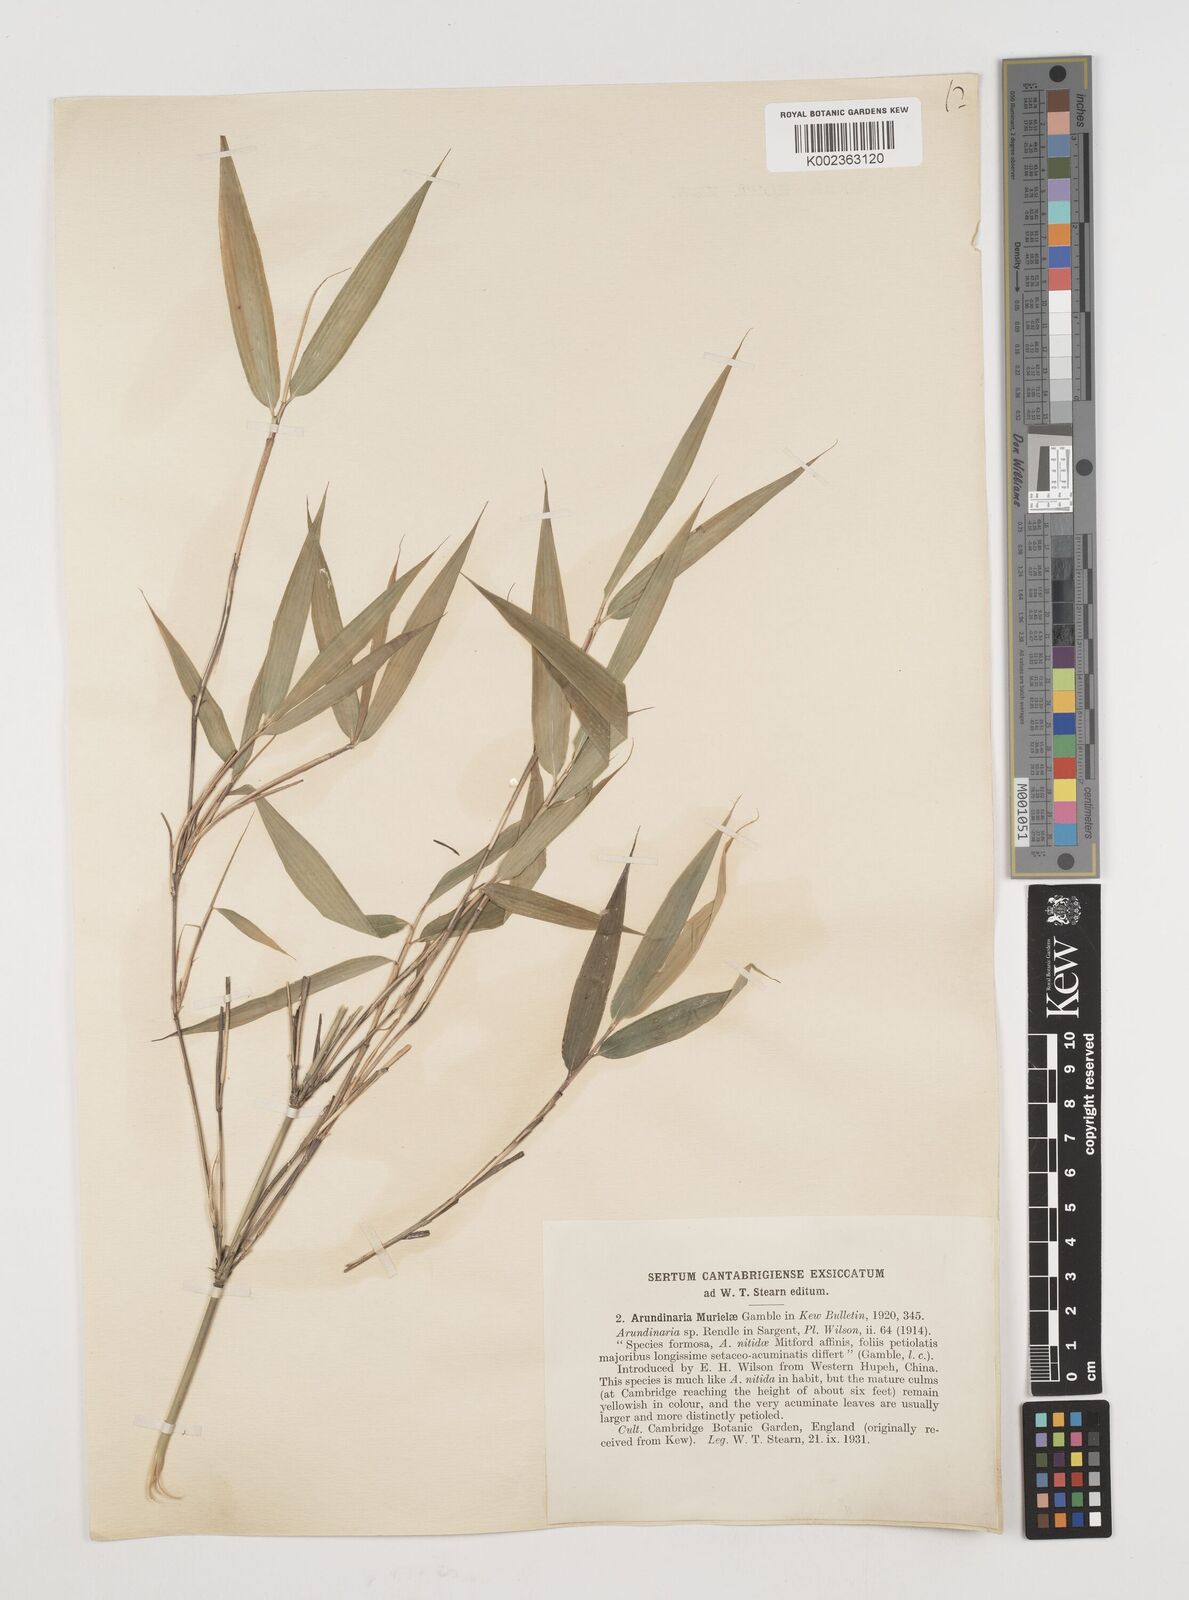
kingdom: Plantae
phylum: Tracheophyta
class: Liliopsida
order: Poales
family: Poaceae
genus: Fargesia
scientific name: Fargesia murielae
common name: Umbrella bamboo
